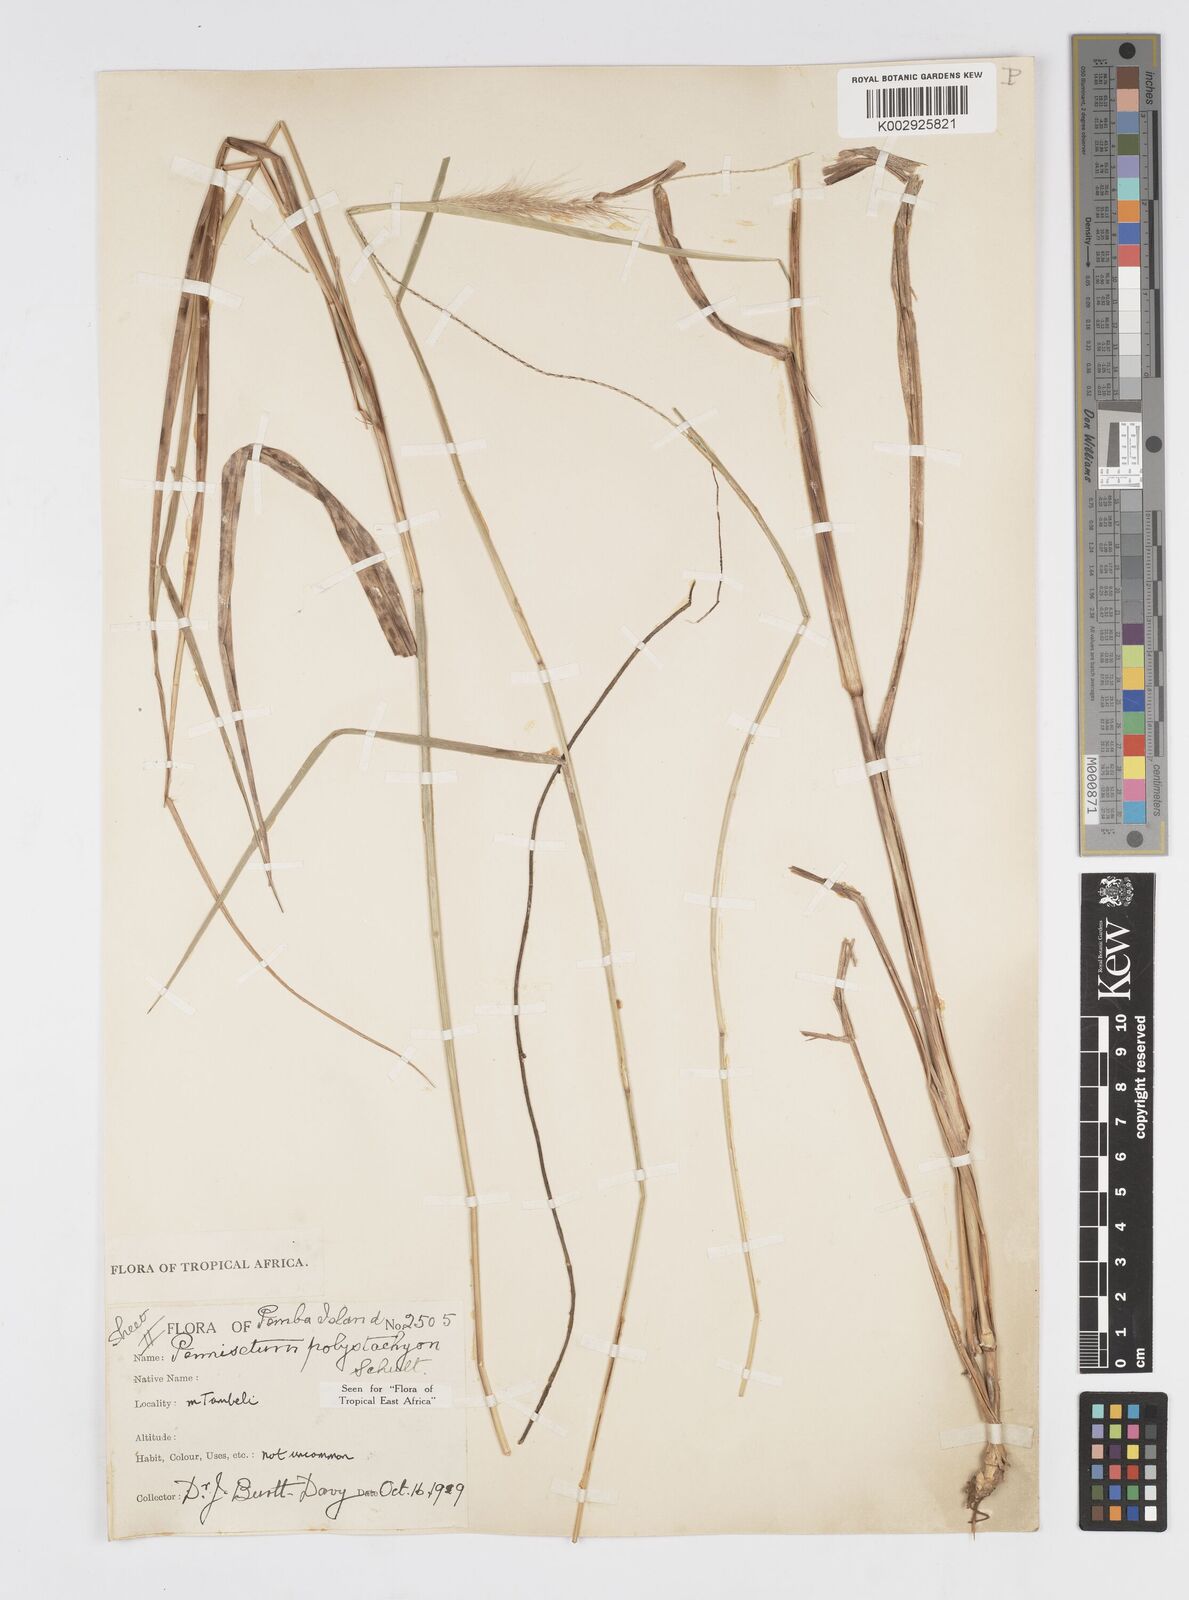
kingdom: Plantae
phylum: Tracheophyta
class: Liliopsida
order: Poales
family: Poaceae
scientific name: Poaceae
